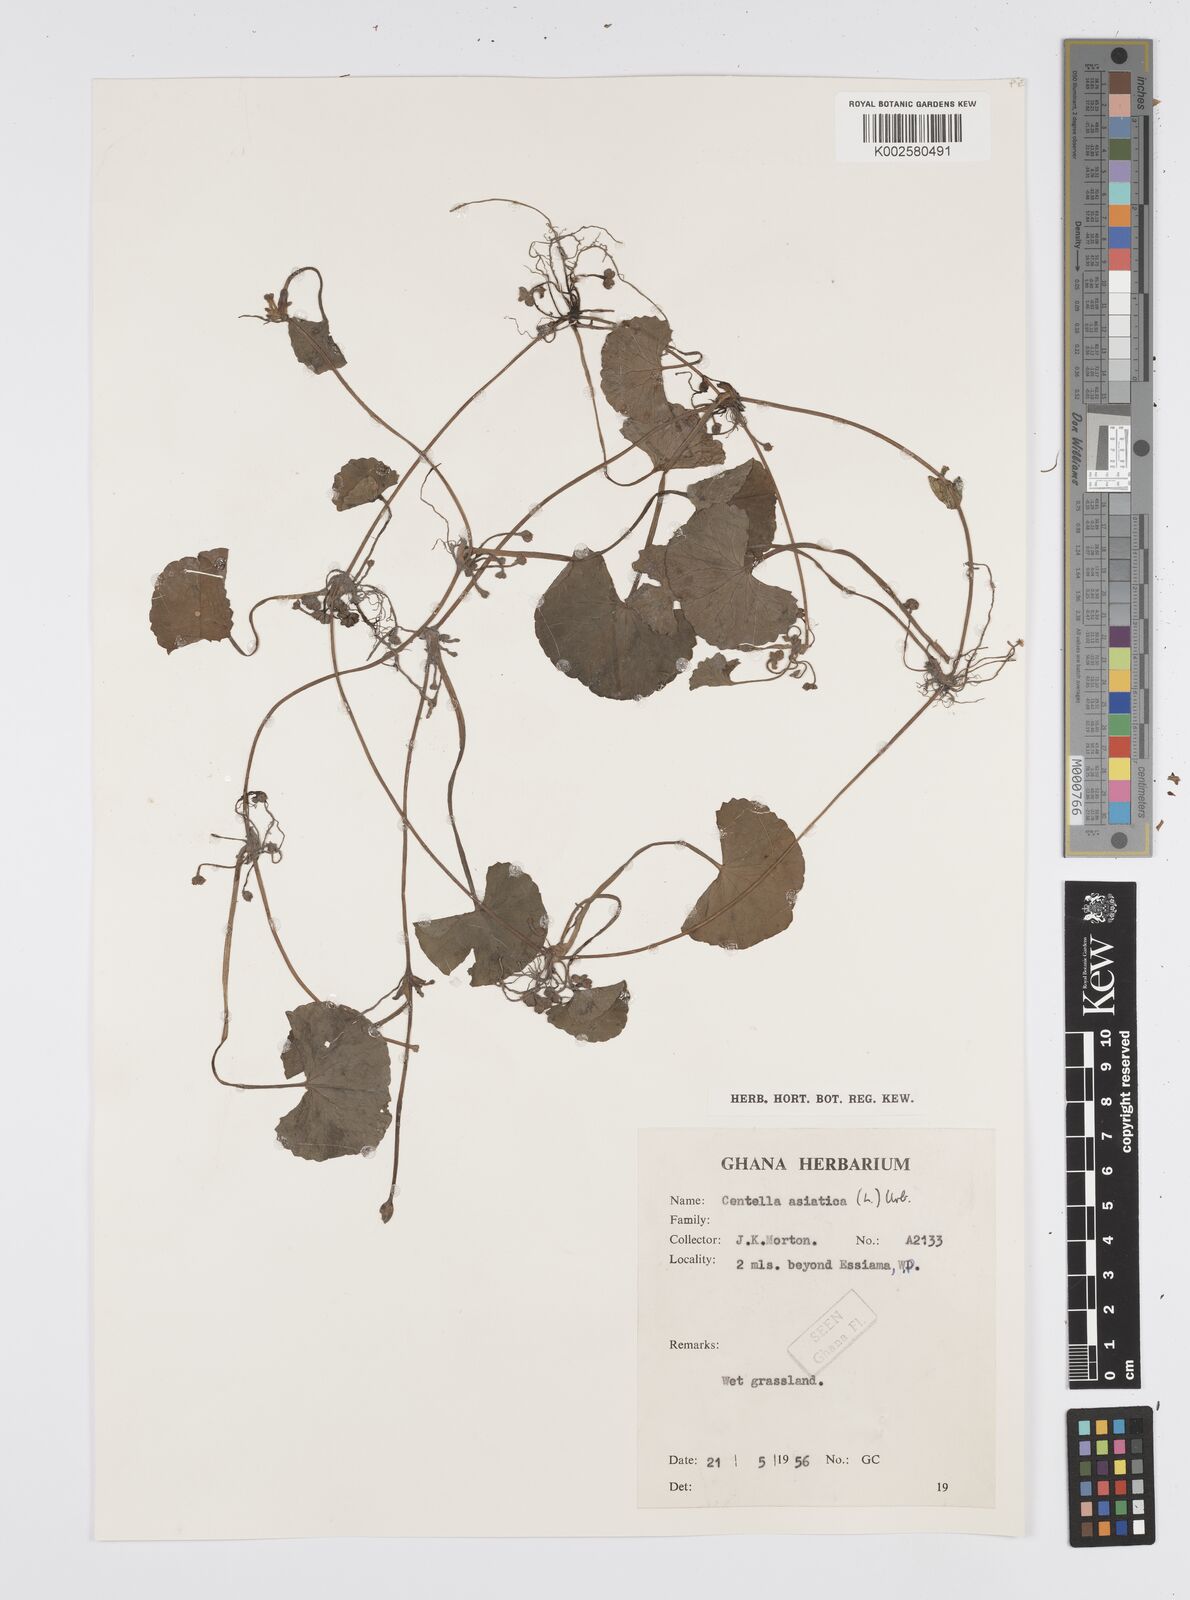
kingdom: Plantae
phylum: Tracheophyta
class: Magnoliopsida
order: Apiales
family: Apiaceae
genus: Centella
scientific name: Centella asiatica
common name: Spadeleaf
